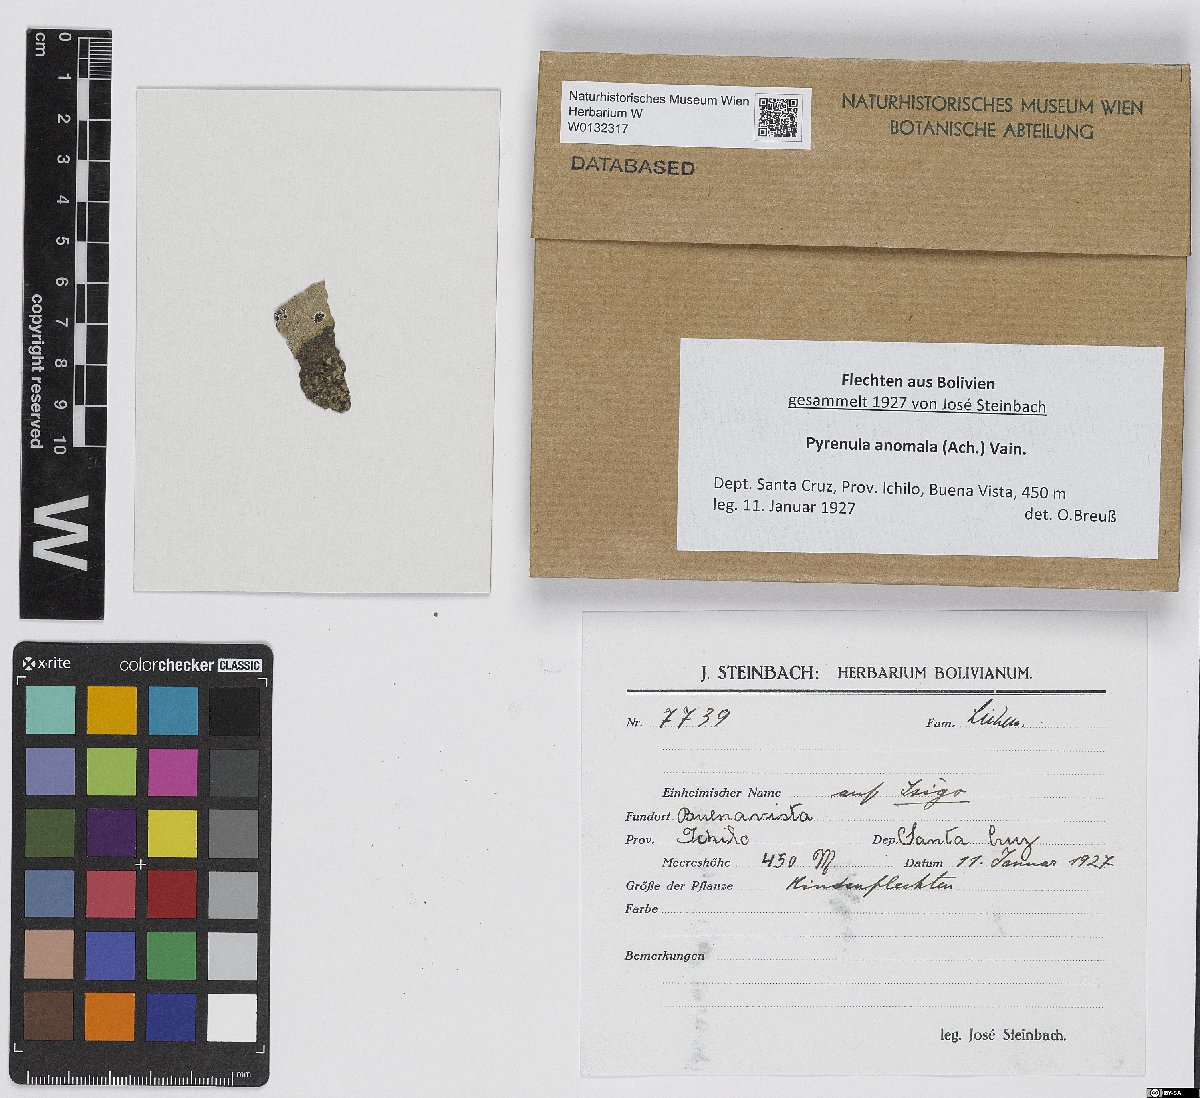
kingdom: Fungi
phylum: Ascomycota
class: Eurotiomycetes
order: Pyrenulales
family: Pyrenulaceae
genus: Pyrenula
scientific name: Pyrenula anomala
